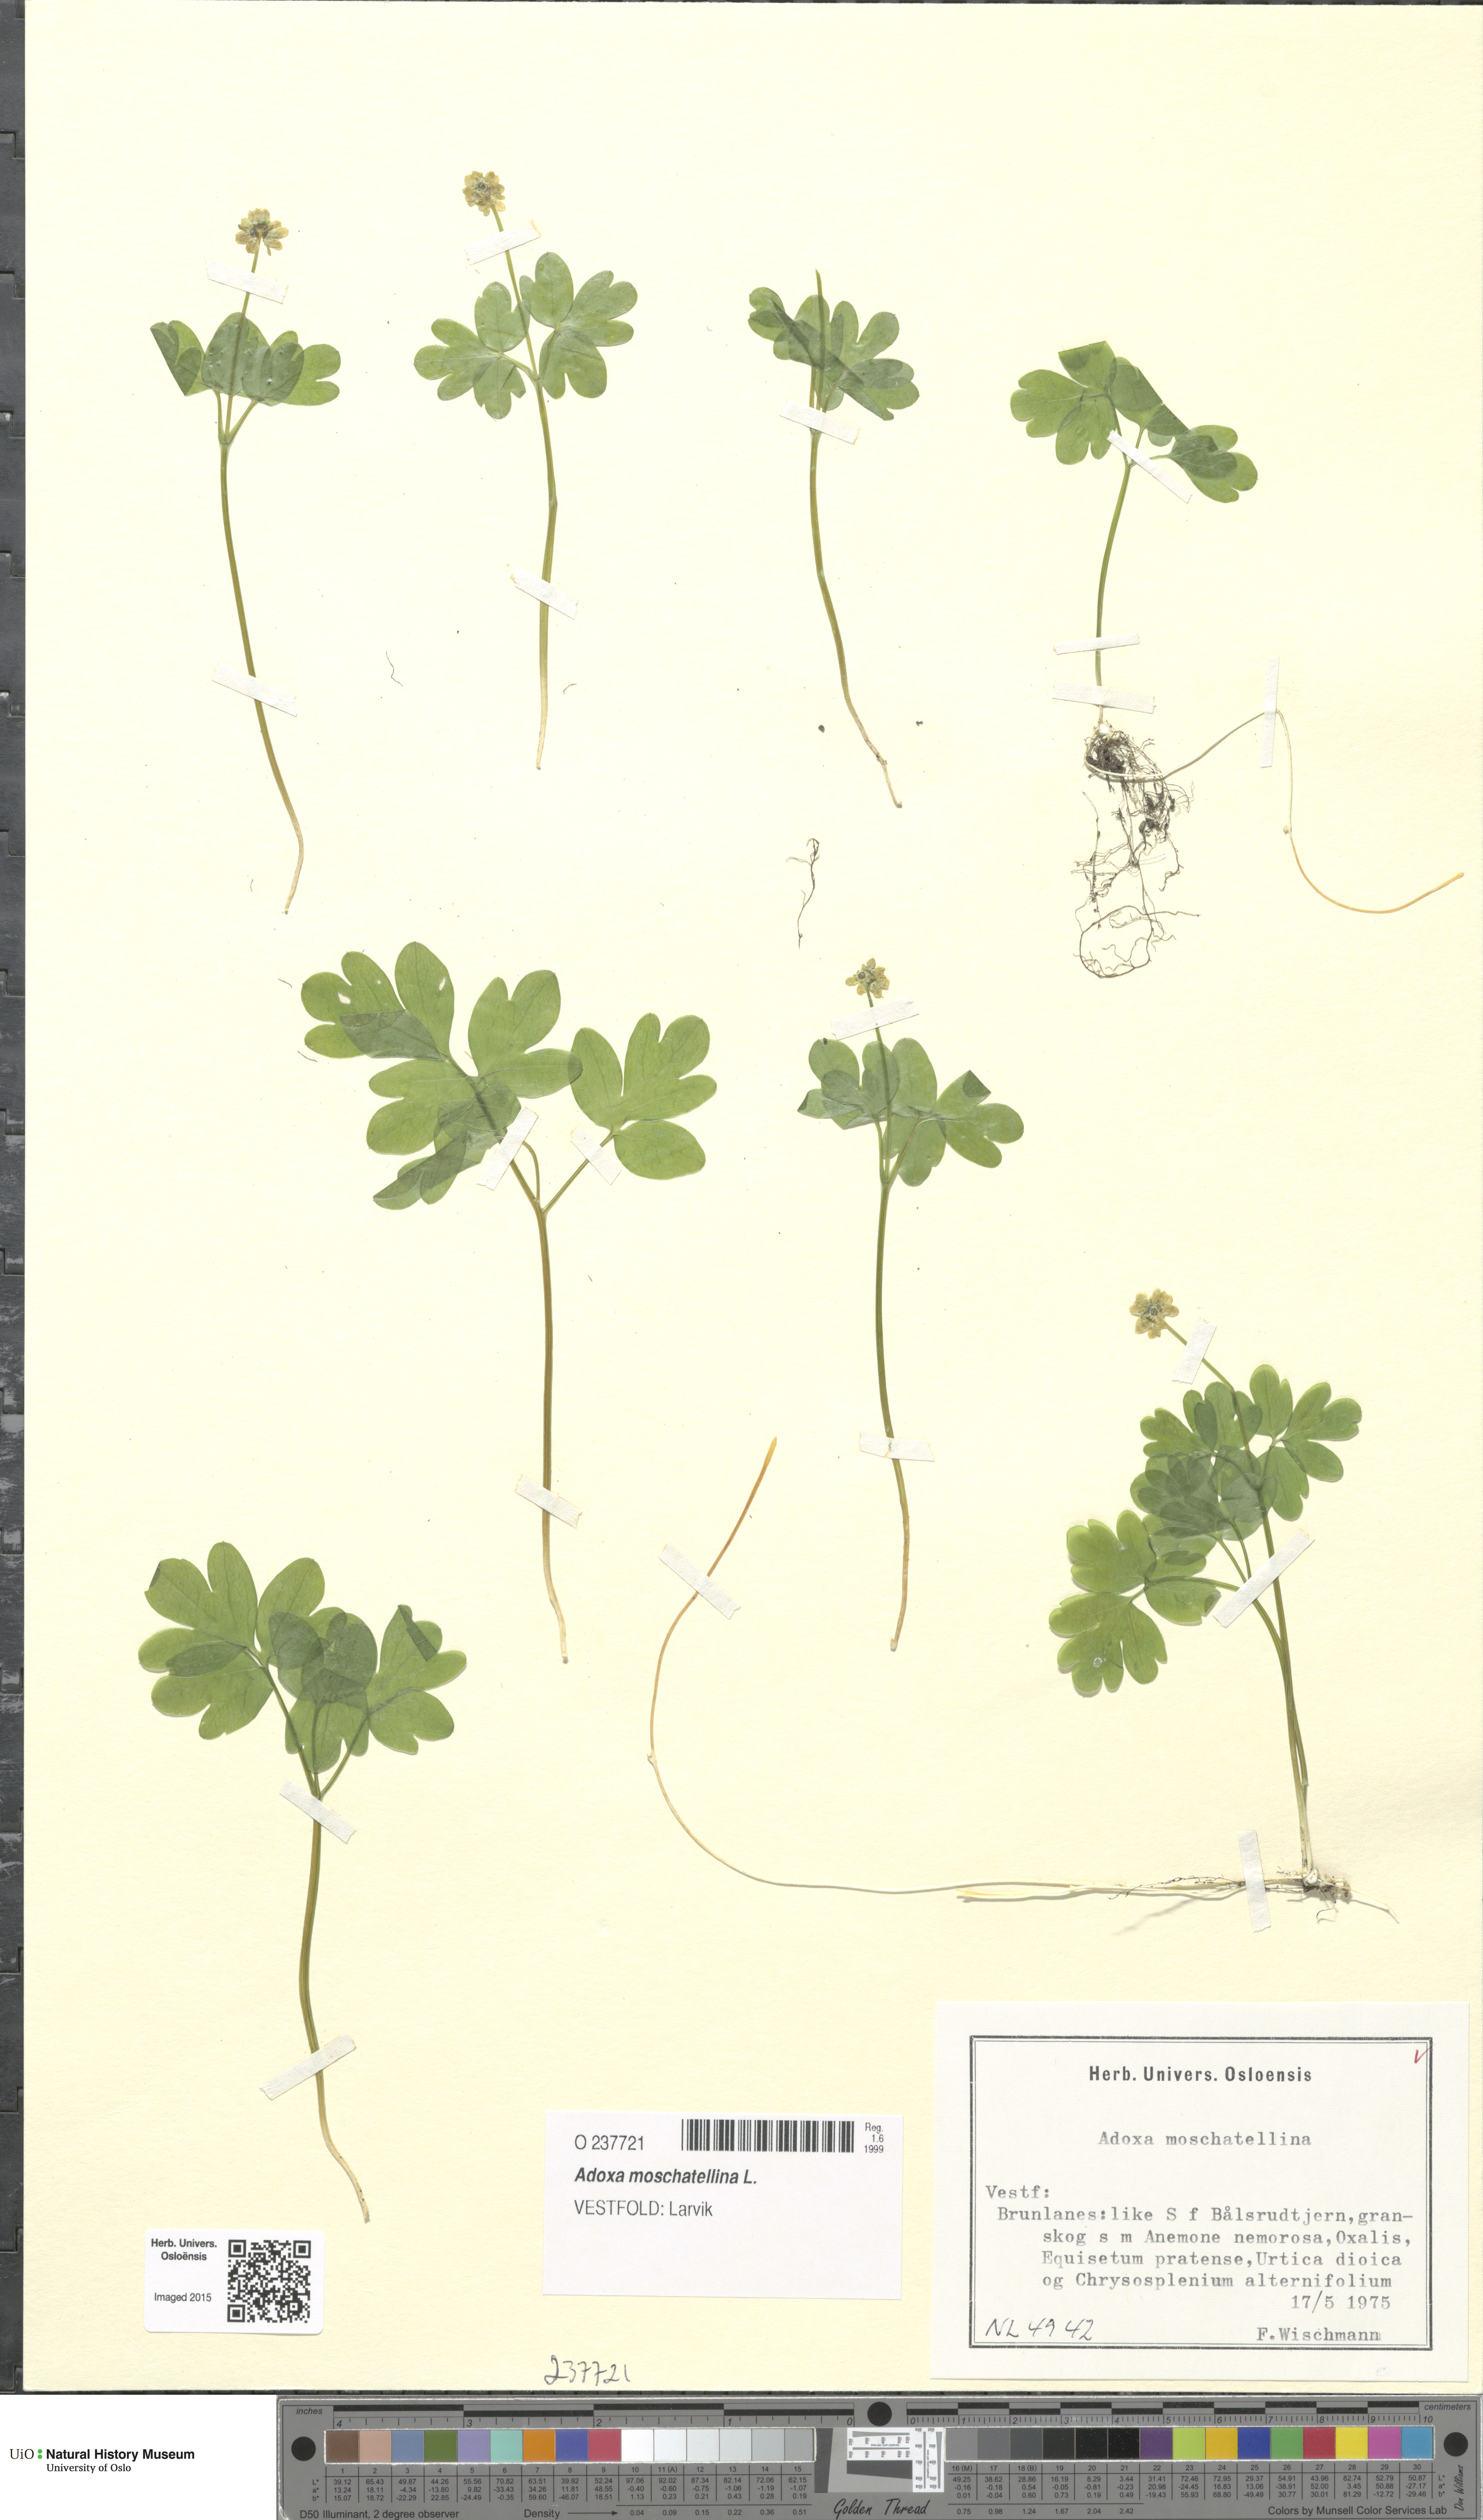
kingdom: Plantae
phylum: Tracheophyta
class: Magnoliopsida
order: Dipsacales
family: Viburnaceae
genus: Adoxa
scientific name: Adoxa moschatellina
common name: Moschatel
